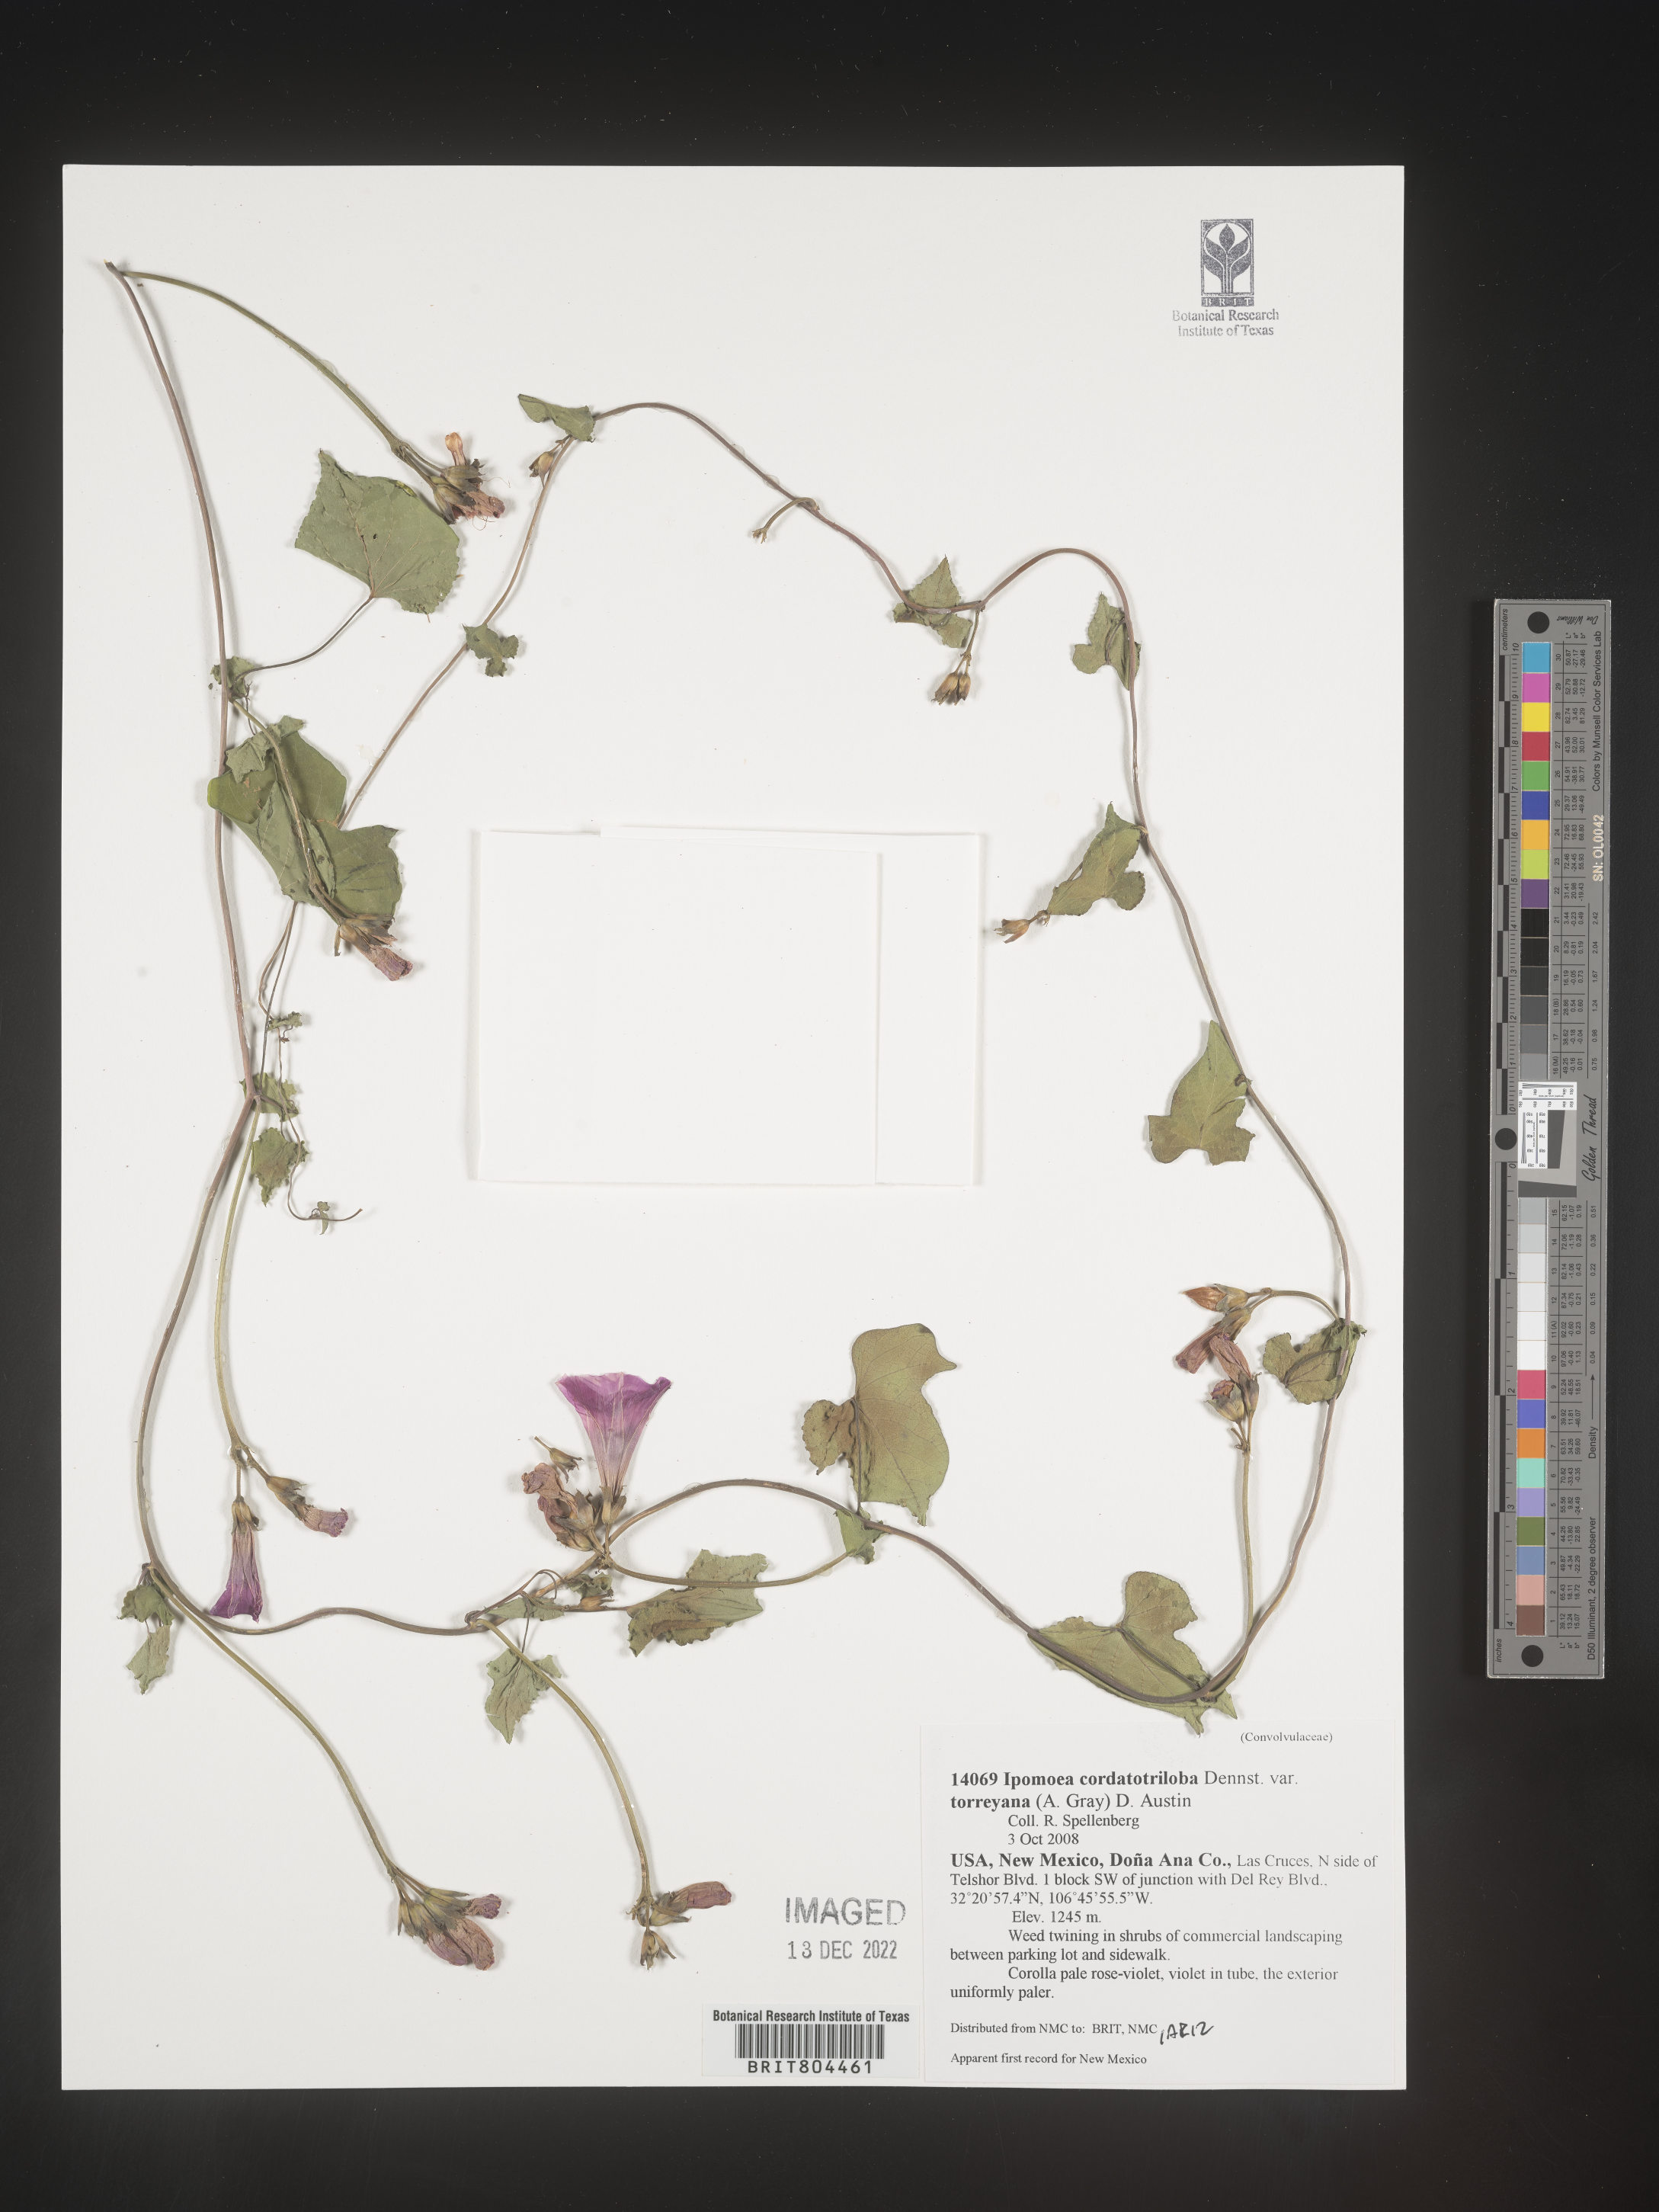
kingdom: Plantae
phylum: Tracheophyta
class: Magnoliopsida
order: Solanales
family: Convolvulaceae
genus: Ipomoea
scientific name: Ipomoea cordatotriloba
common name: Cotton morning glory
